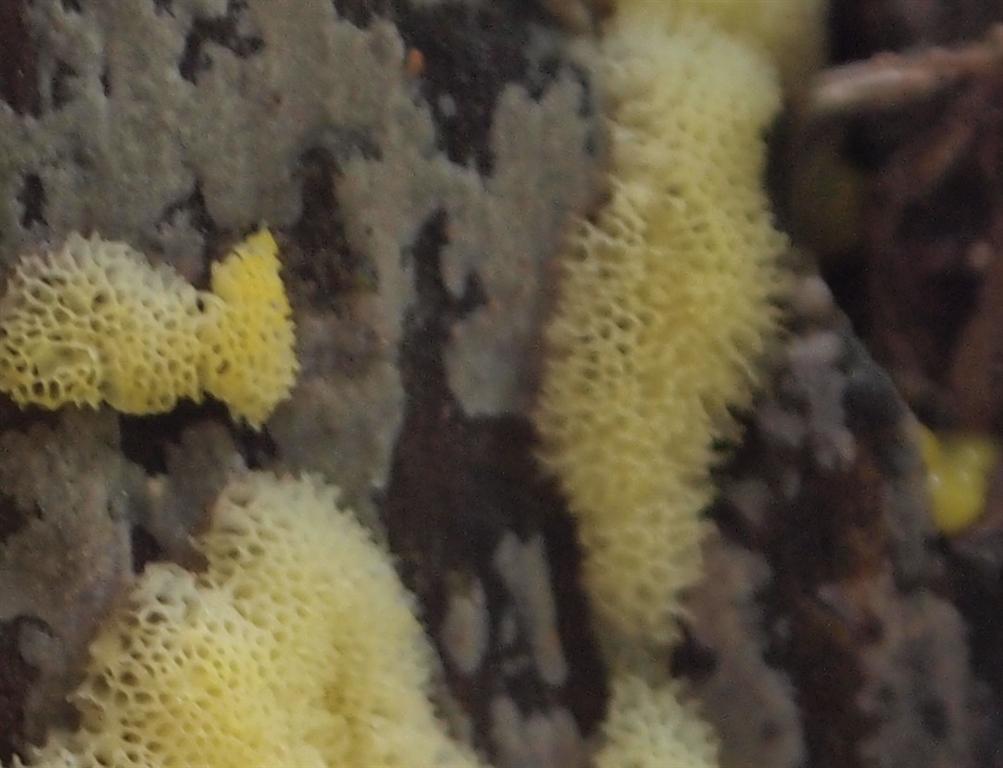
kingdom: Protozoa
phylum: Mycetozoa
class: Protosteliomycetes
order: Ceratiomyxales
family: Ceratiomyxaceae
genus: Ceratiomyxa
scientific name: Ceratiomyxa fruticulosa
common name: Honeycomb coral slime mold
